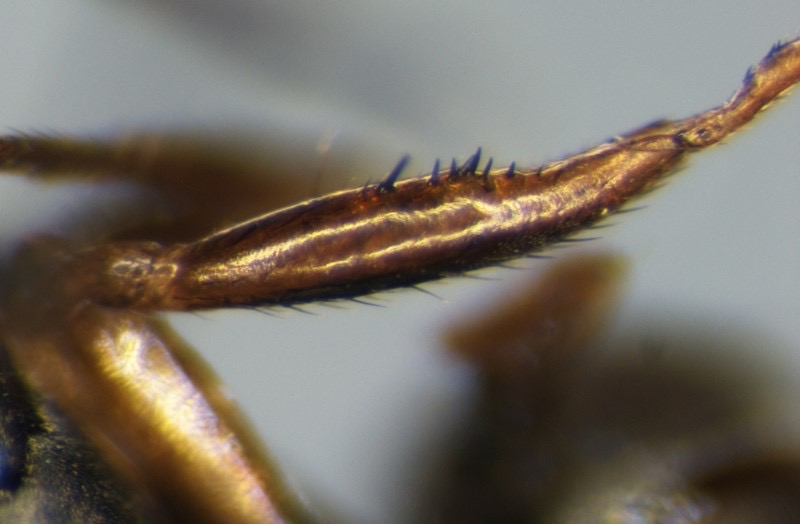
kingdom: Animalia
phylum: Arthropoda
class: Insecta
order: Diptera
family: Sepsidae
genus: Sepsis
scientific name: Sepsis flavimanus
